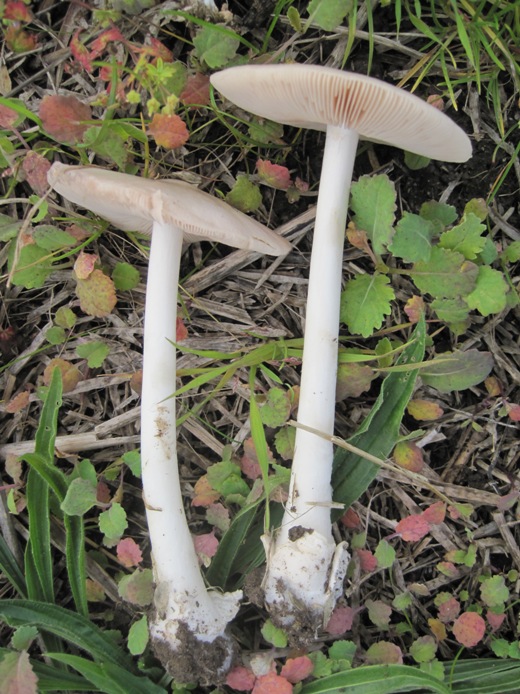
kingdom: Fungi
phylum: Basidiomycota
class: Agaricomycetes
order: Agaricales
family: Pluteaceae
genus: Volvopluteus
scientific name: Volvopluteus gloiocephalus
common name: høj posesvamp
